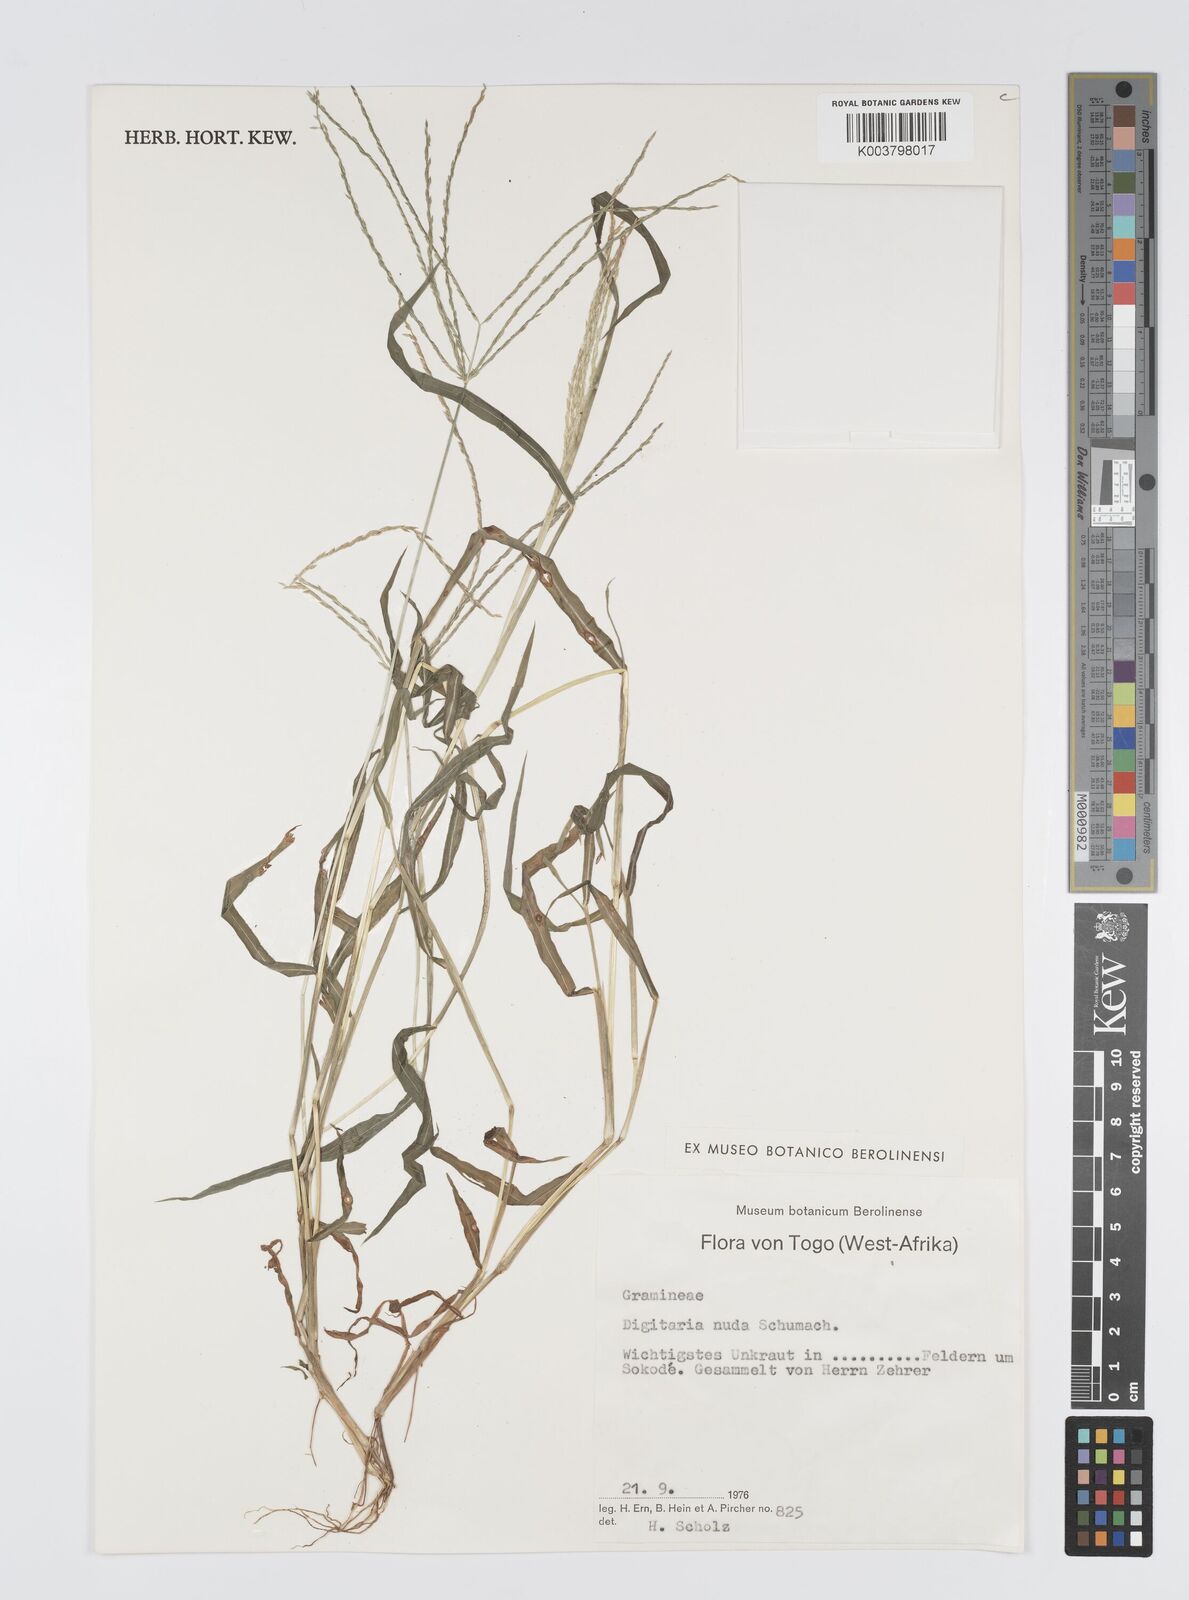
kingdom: Plantae
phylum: Tracheophyta
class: Liliopsida
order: Poales
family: Poaceae
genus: Digitaria
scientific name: Digitaria nuda
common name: Naked crabgrass
